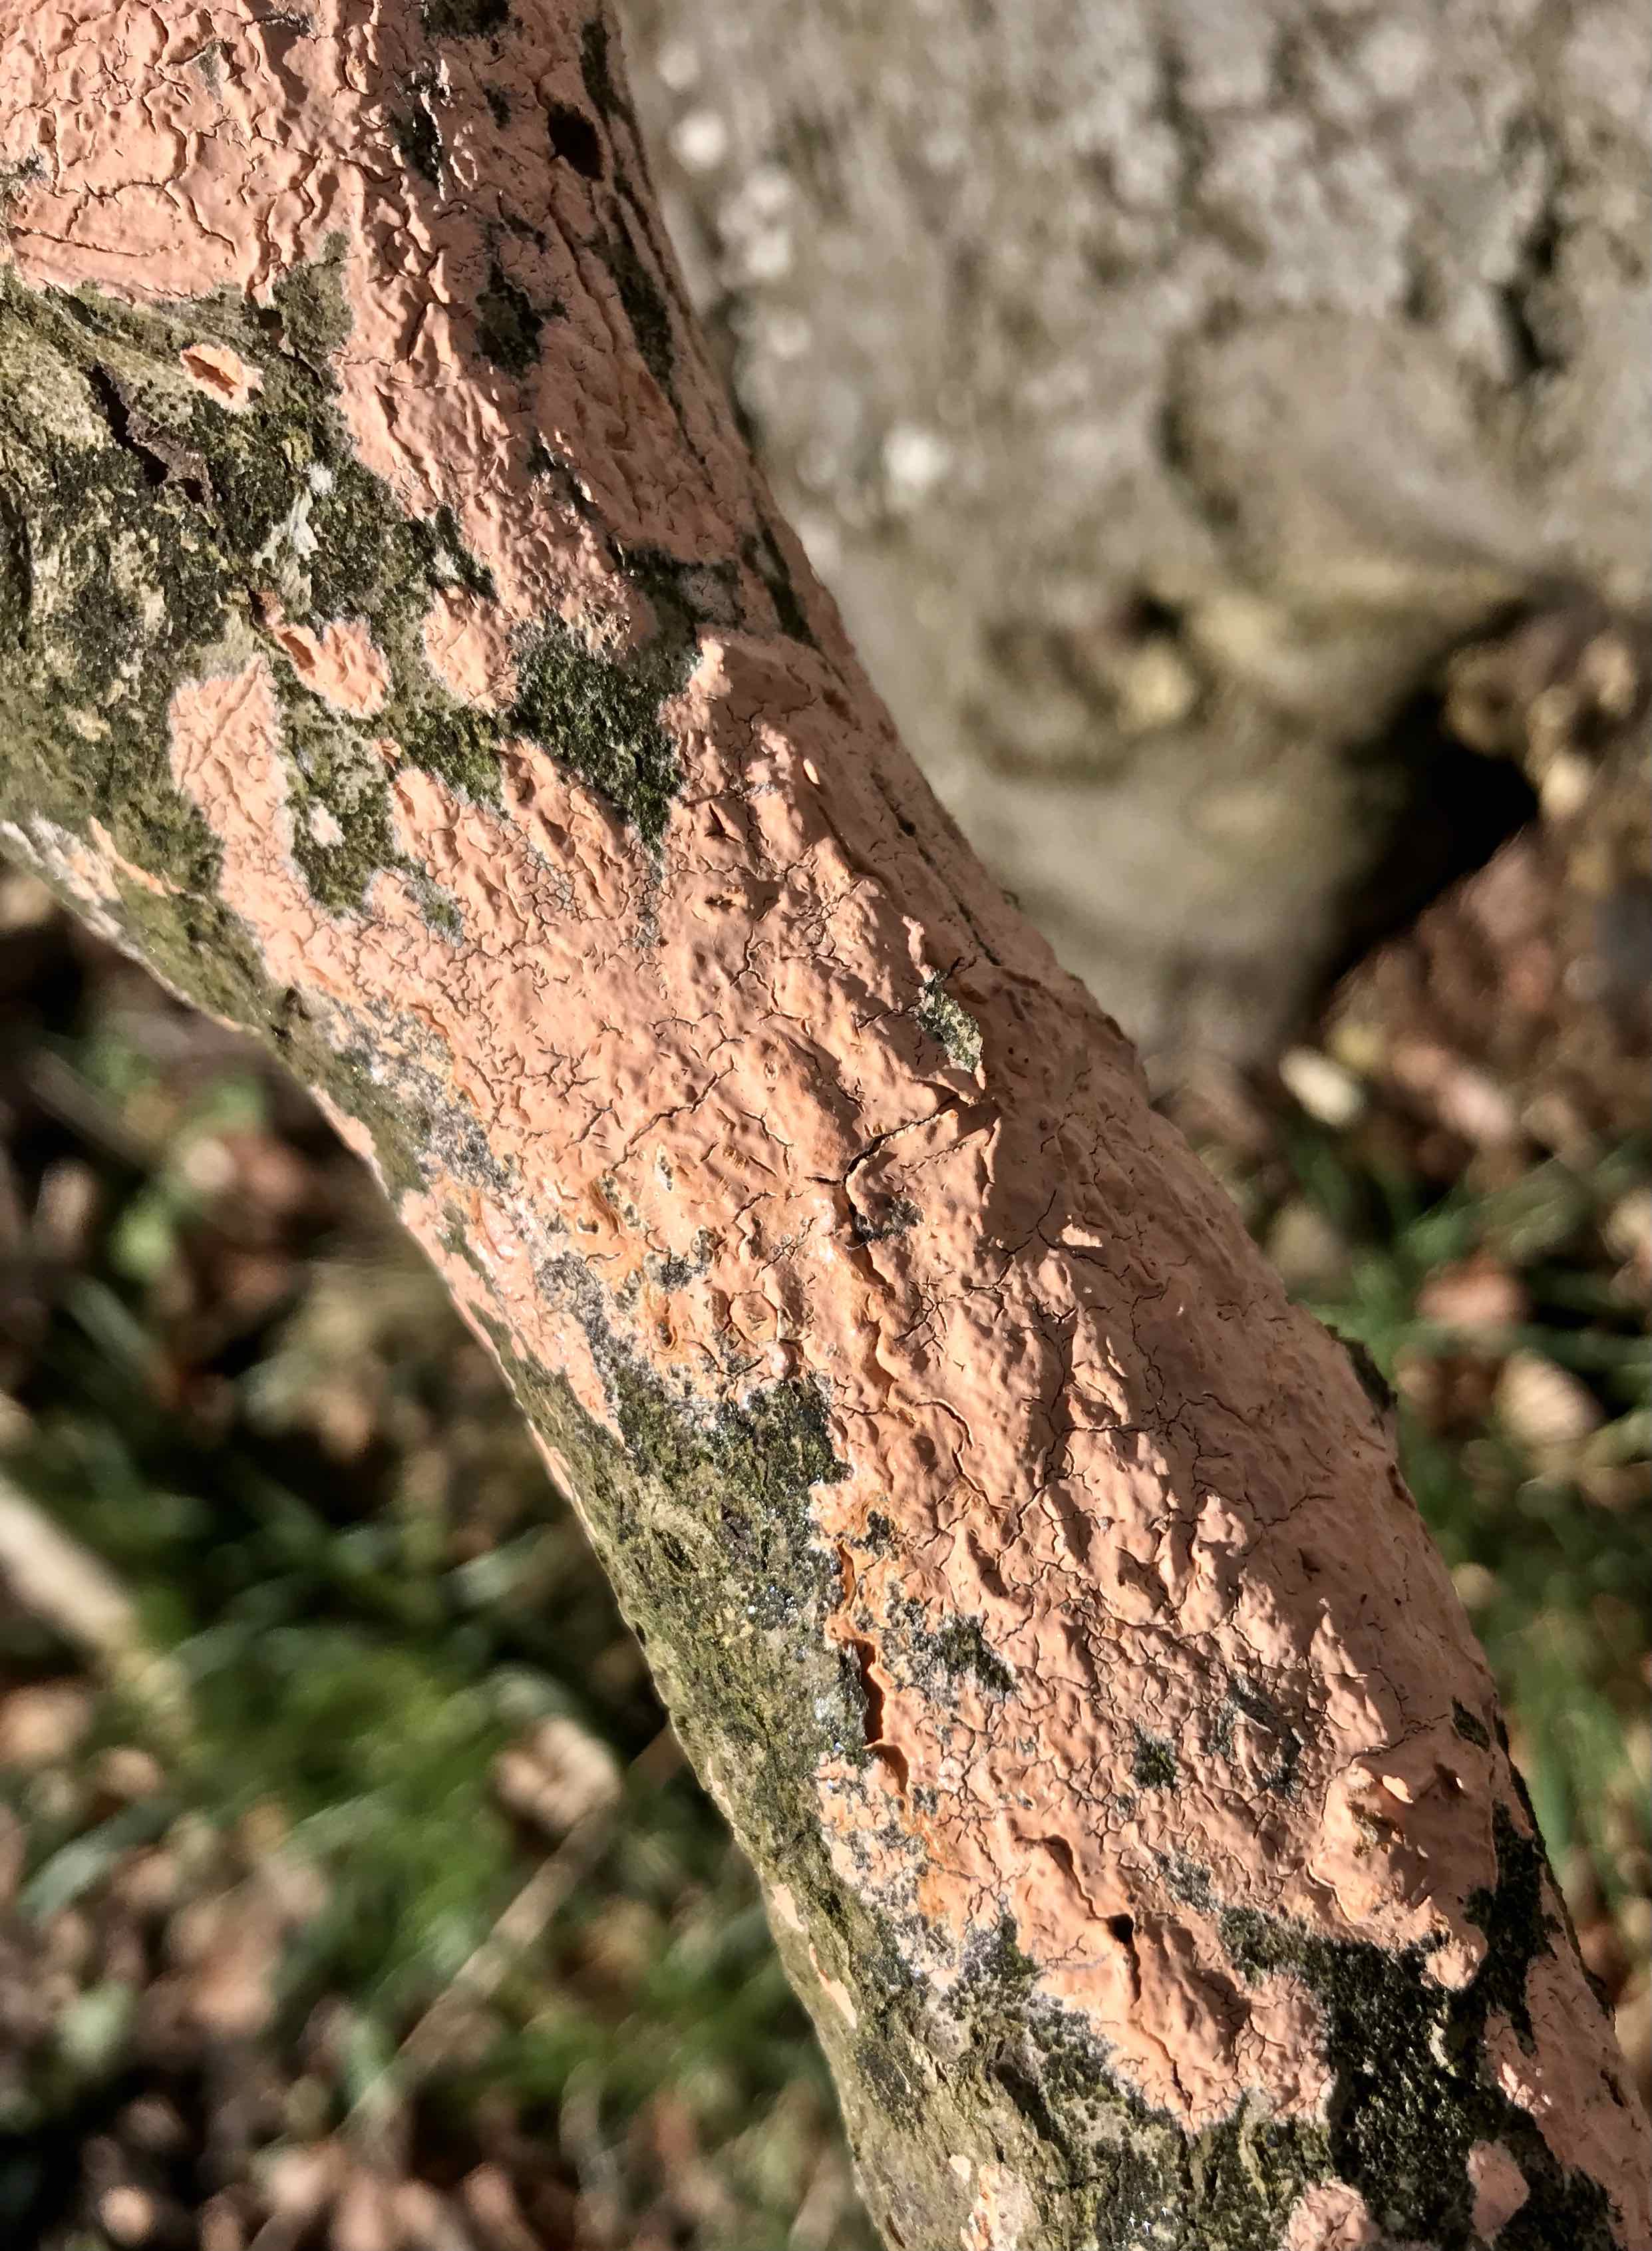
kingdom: Fungi
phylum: Basidiomycota
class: Agaricomycetes
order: Russulales
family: Peniophoraceae
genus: Peniophora
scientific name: Peniophora incarnata
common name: laksefarvet voksskind
